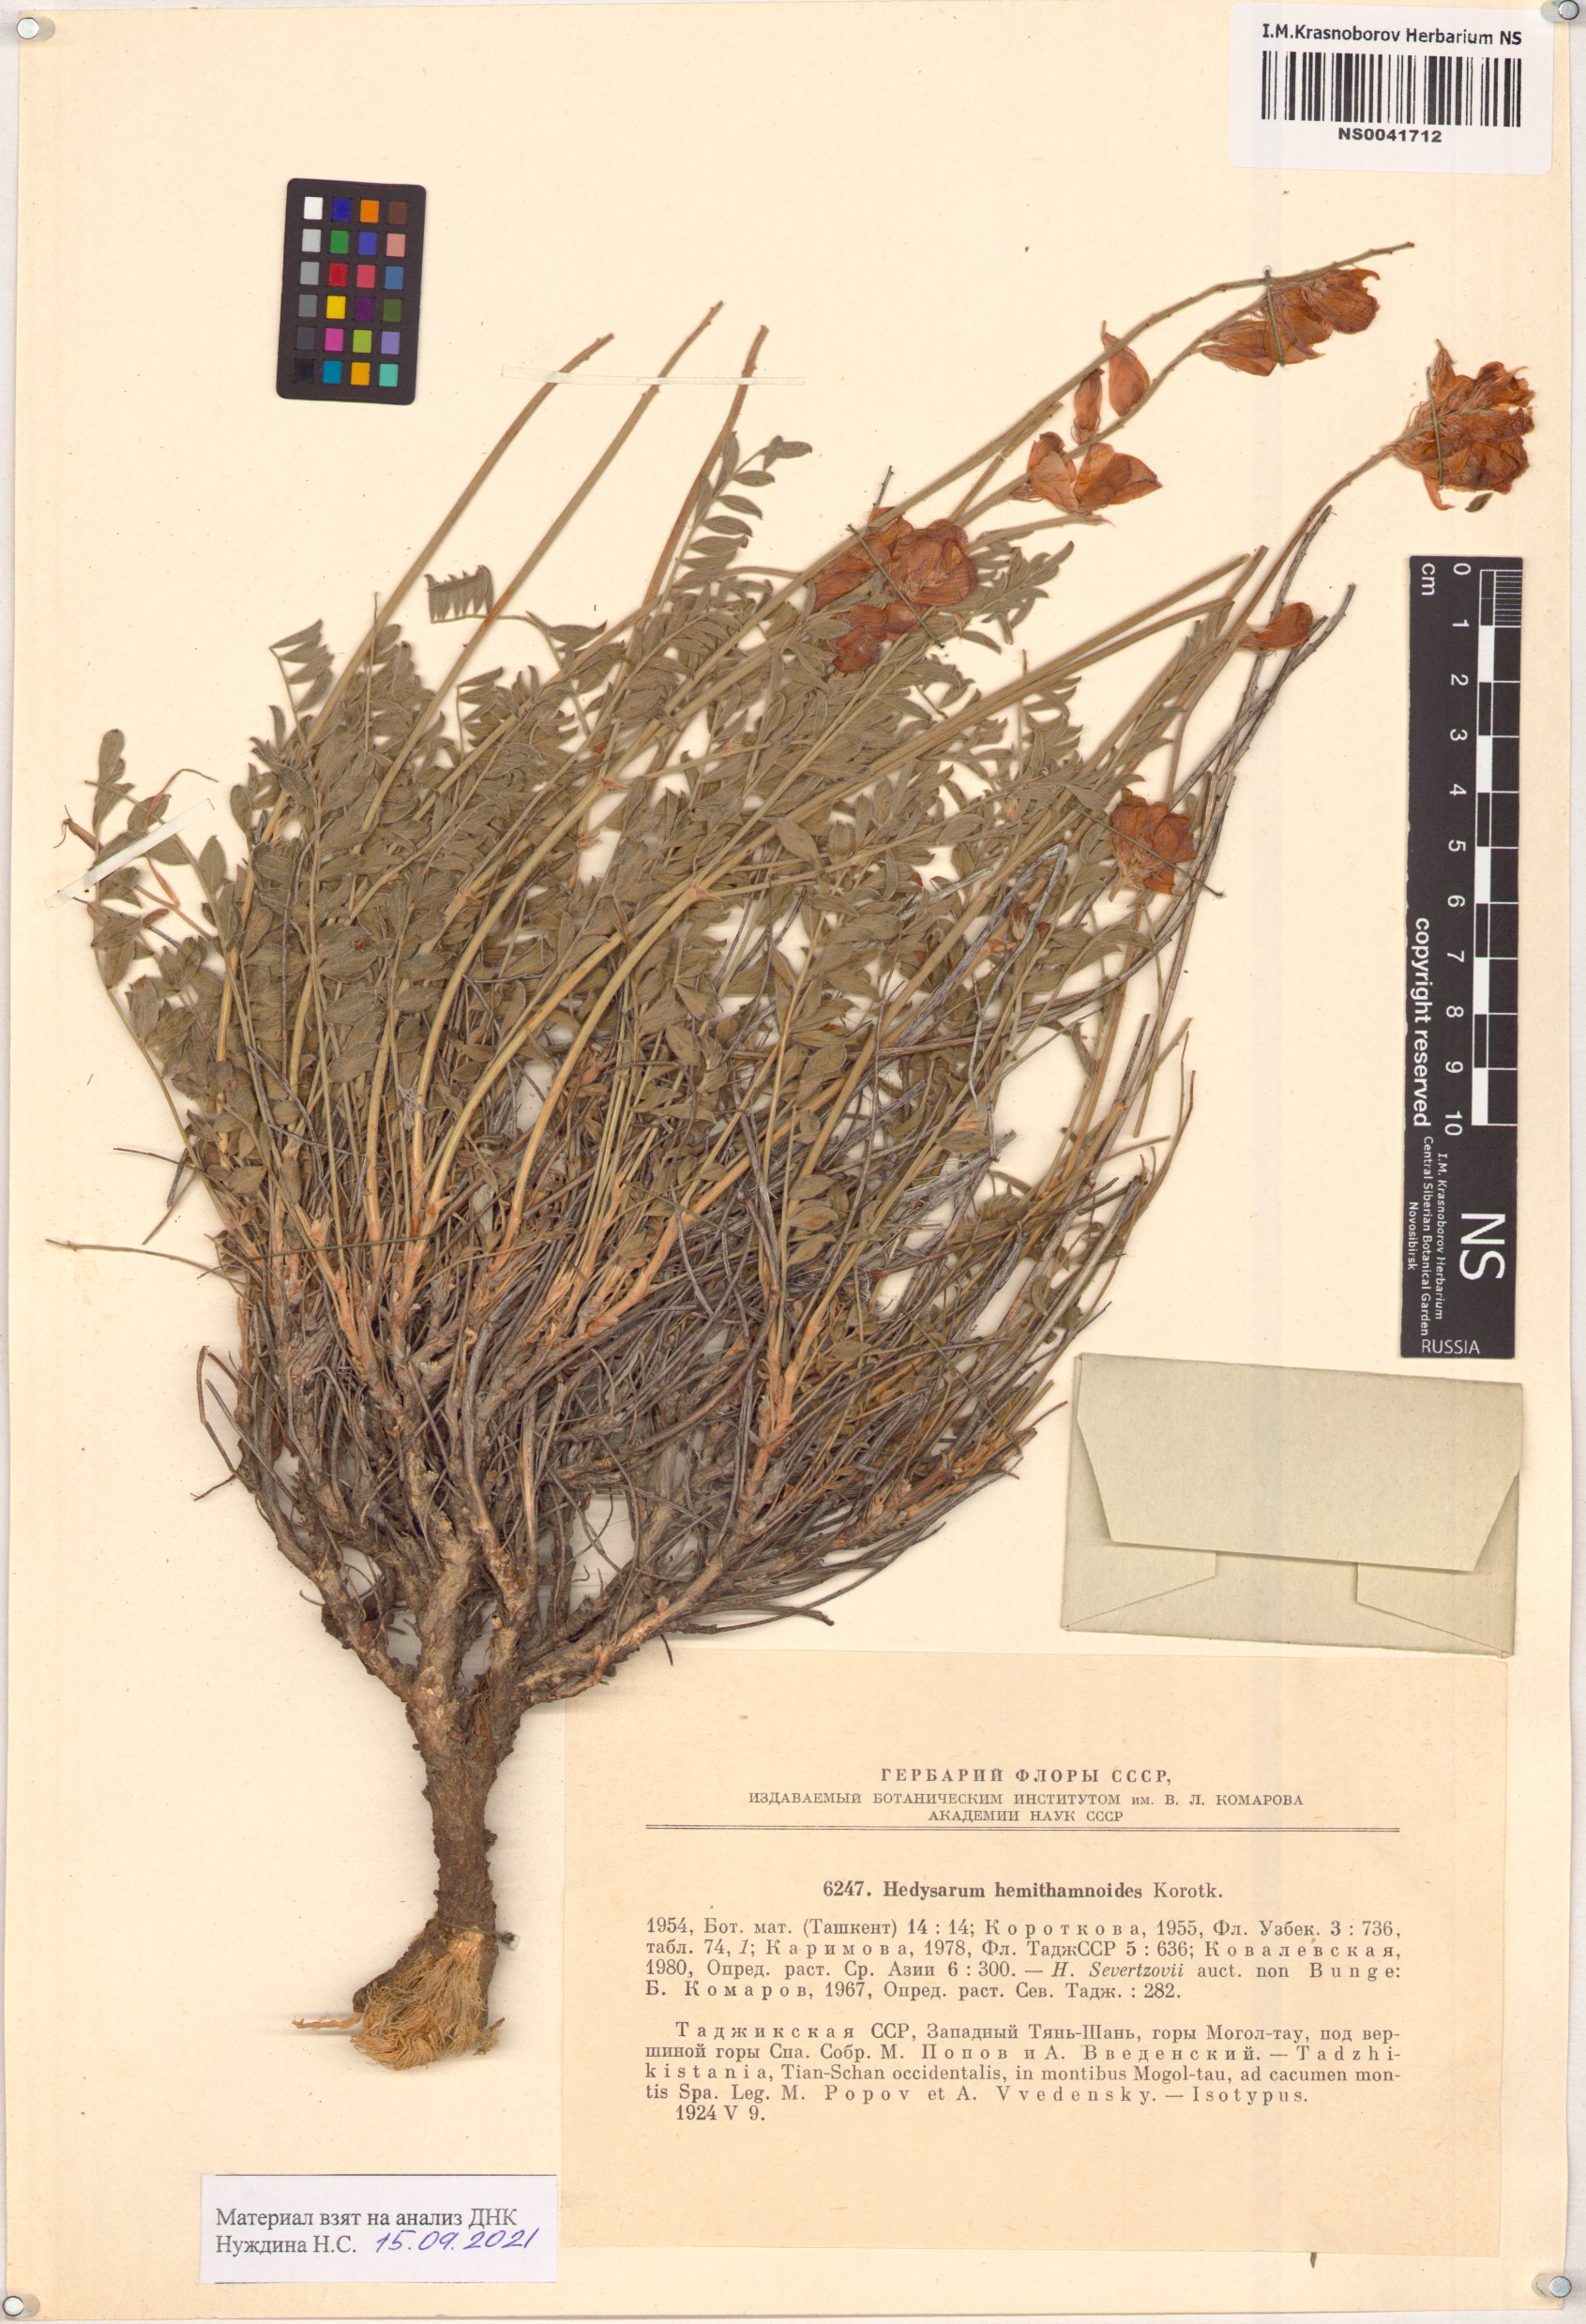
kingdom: Plantae
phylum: Tracheophyta
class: Magnoliopsida
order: Fabales
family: Fabaceae
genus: Hedysarum
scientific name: Hedysarum hemithamnoides
